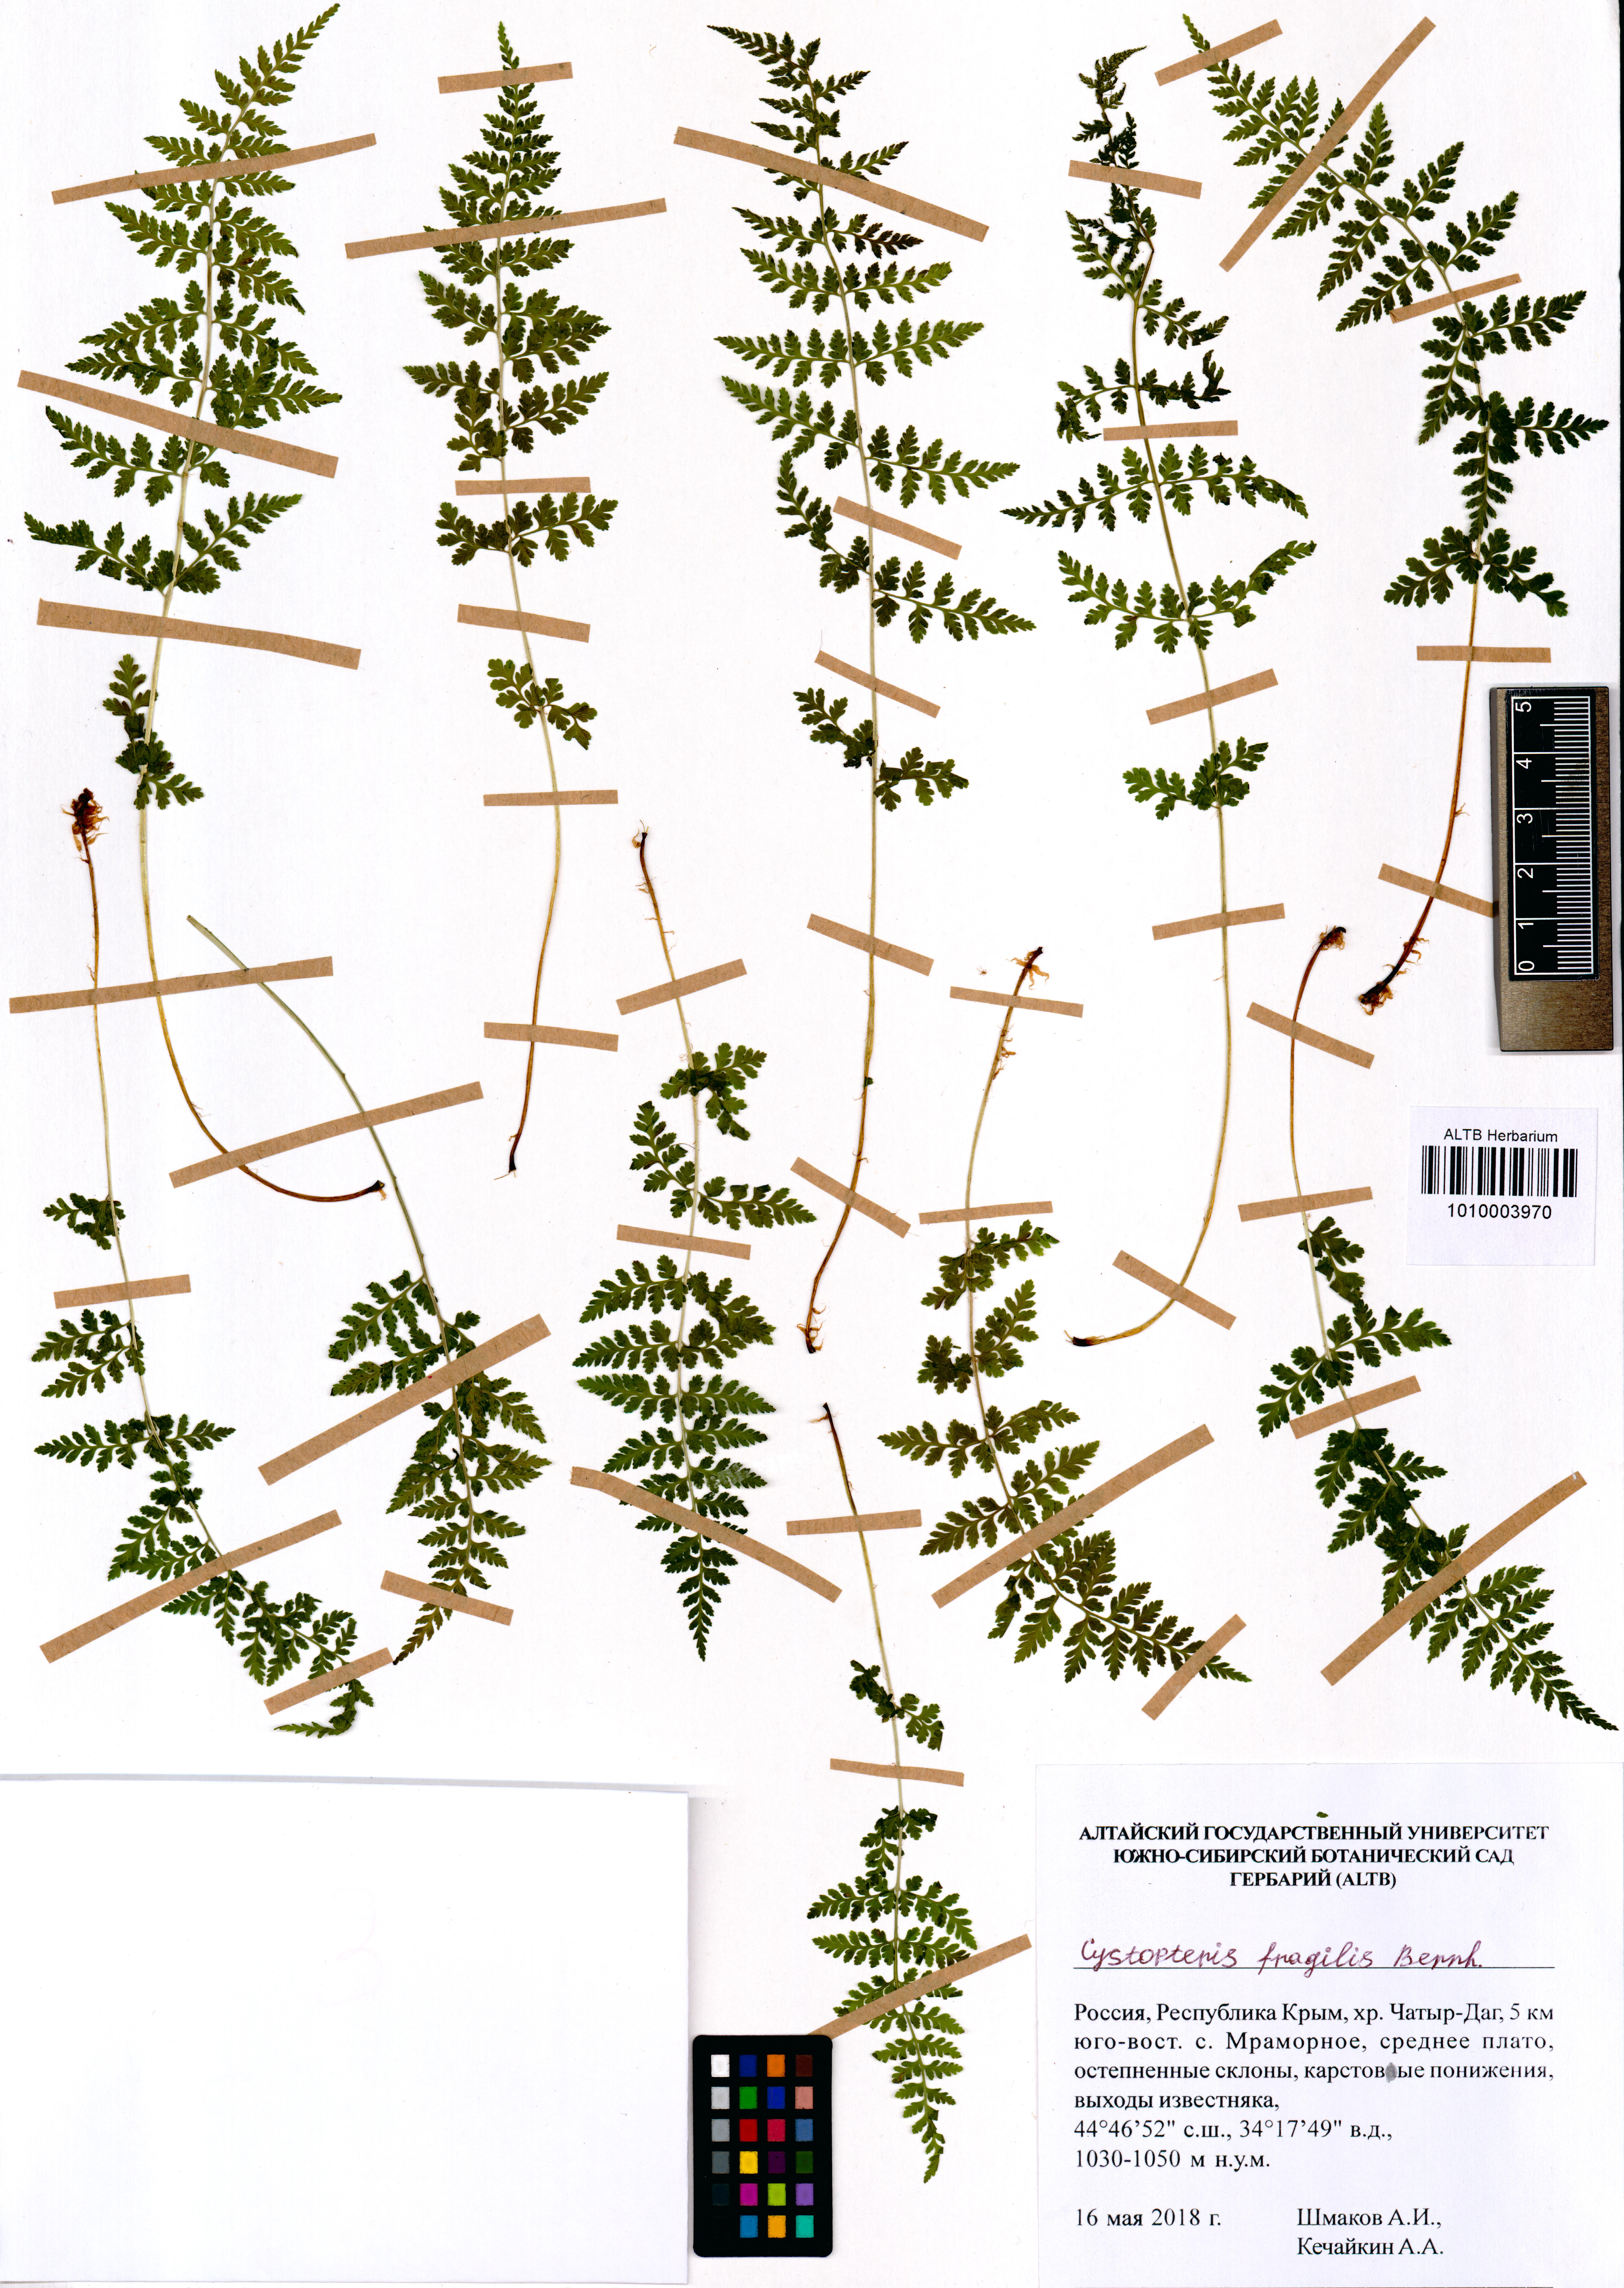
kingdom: Plantae
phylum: Tracheophyta
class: Polypodiopsida
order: Polypodiales
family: Cystopteridaceae
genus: Cystopteris
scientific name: Cystopteris fragilis
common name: Brittle bladder fern
